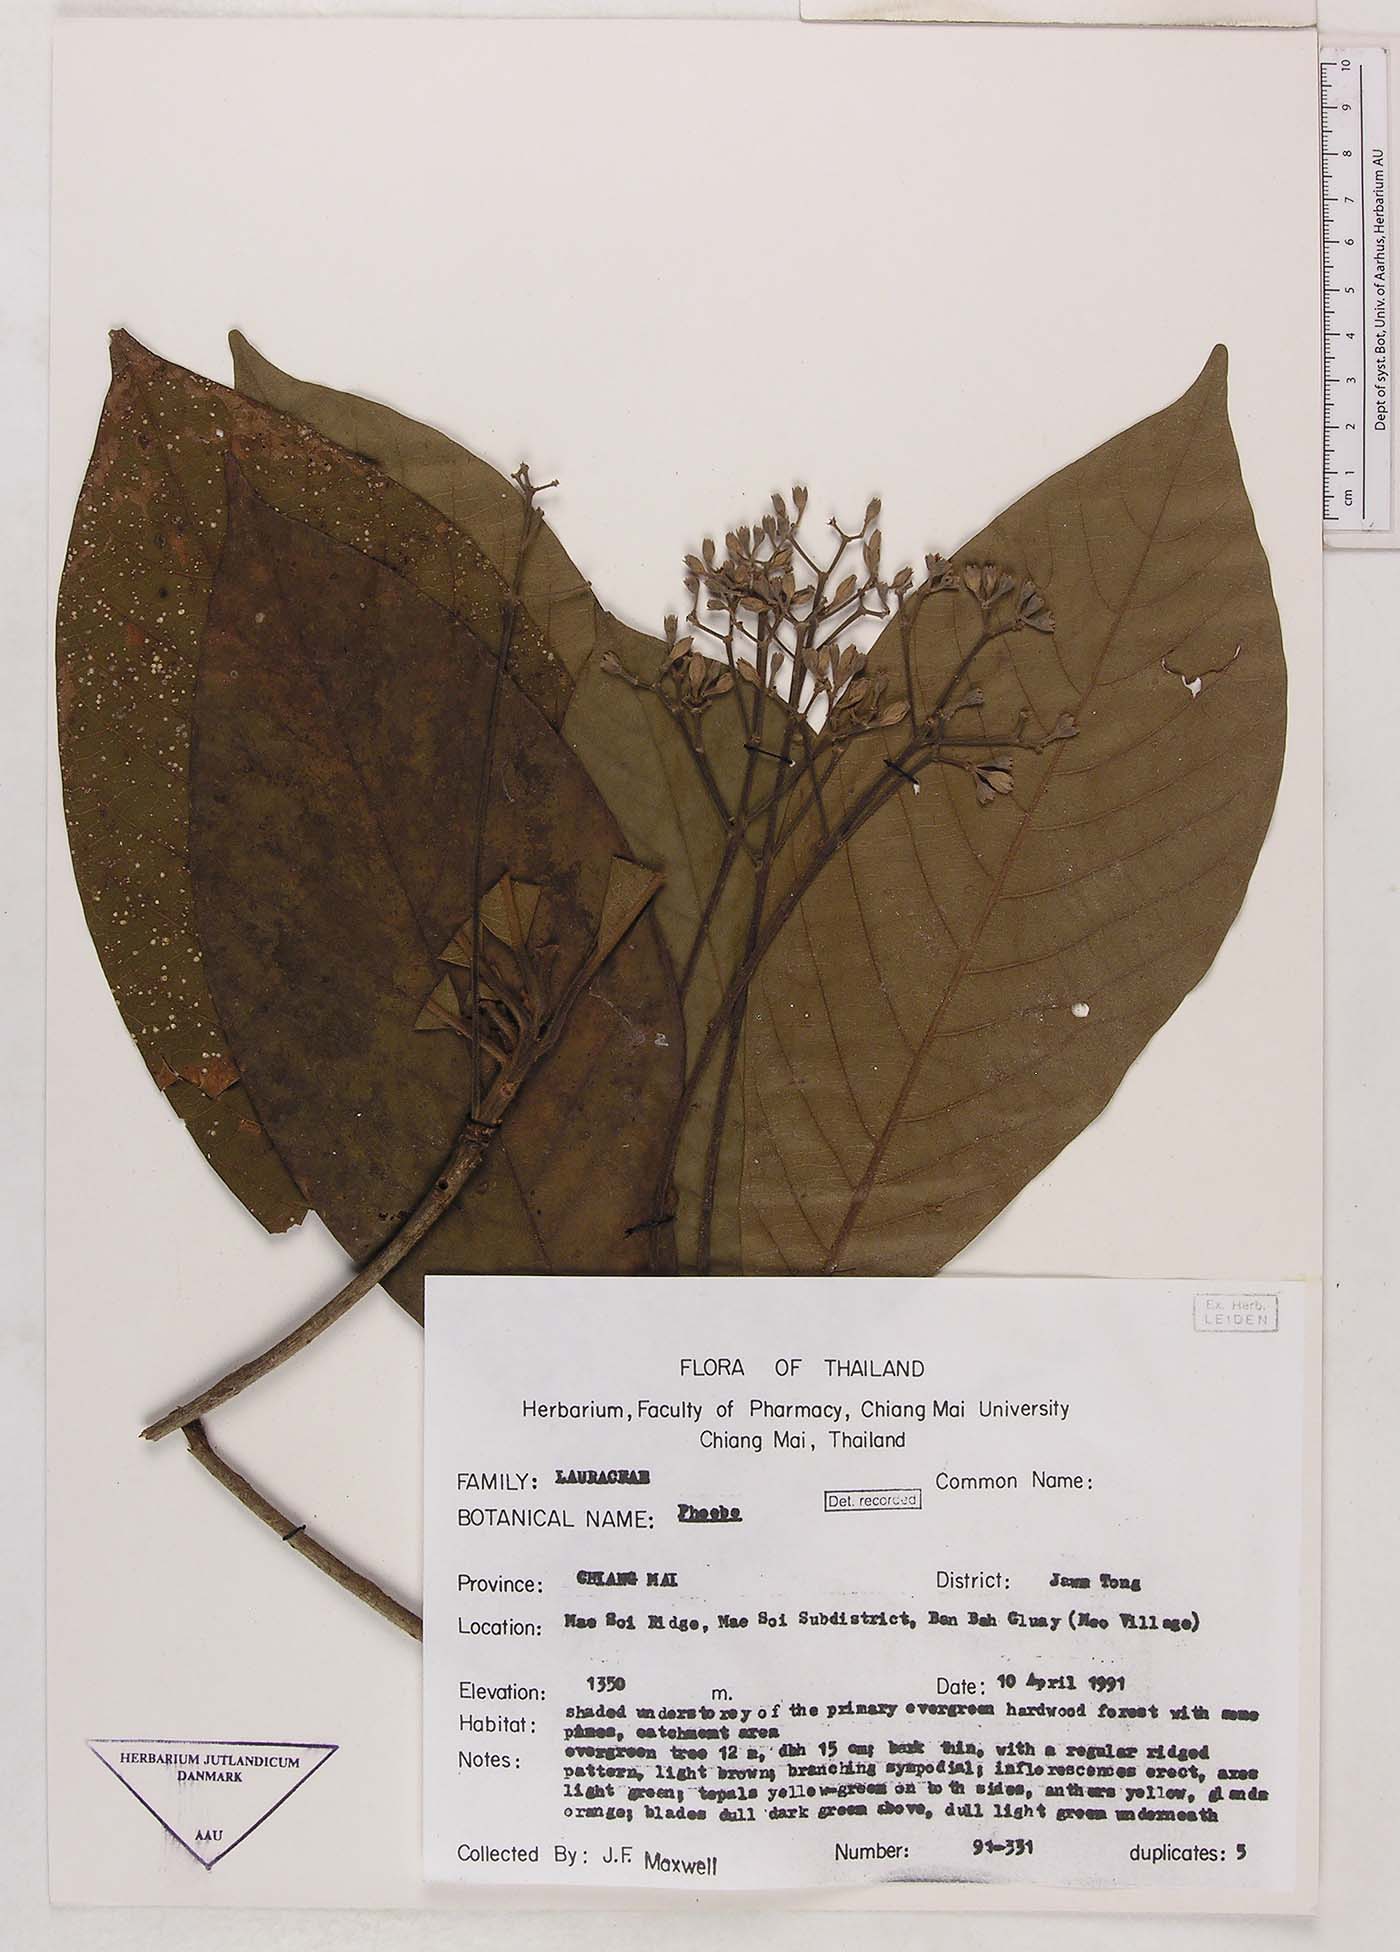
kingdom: Plantae
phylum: Tracheophyta
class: Magnoliopsida
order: Laurales
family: Lauraceae
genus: Phoebe
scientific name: Phoebe
